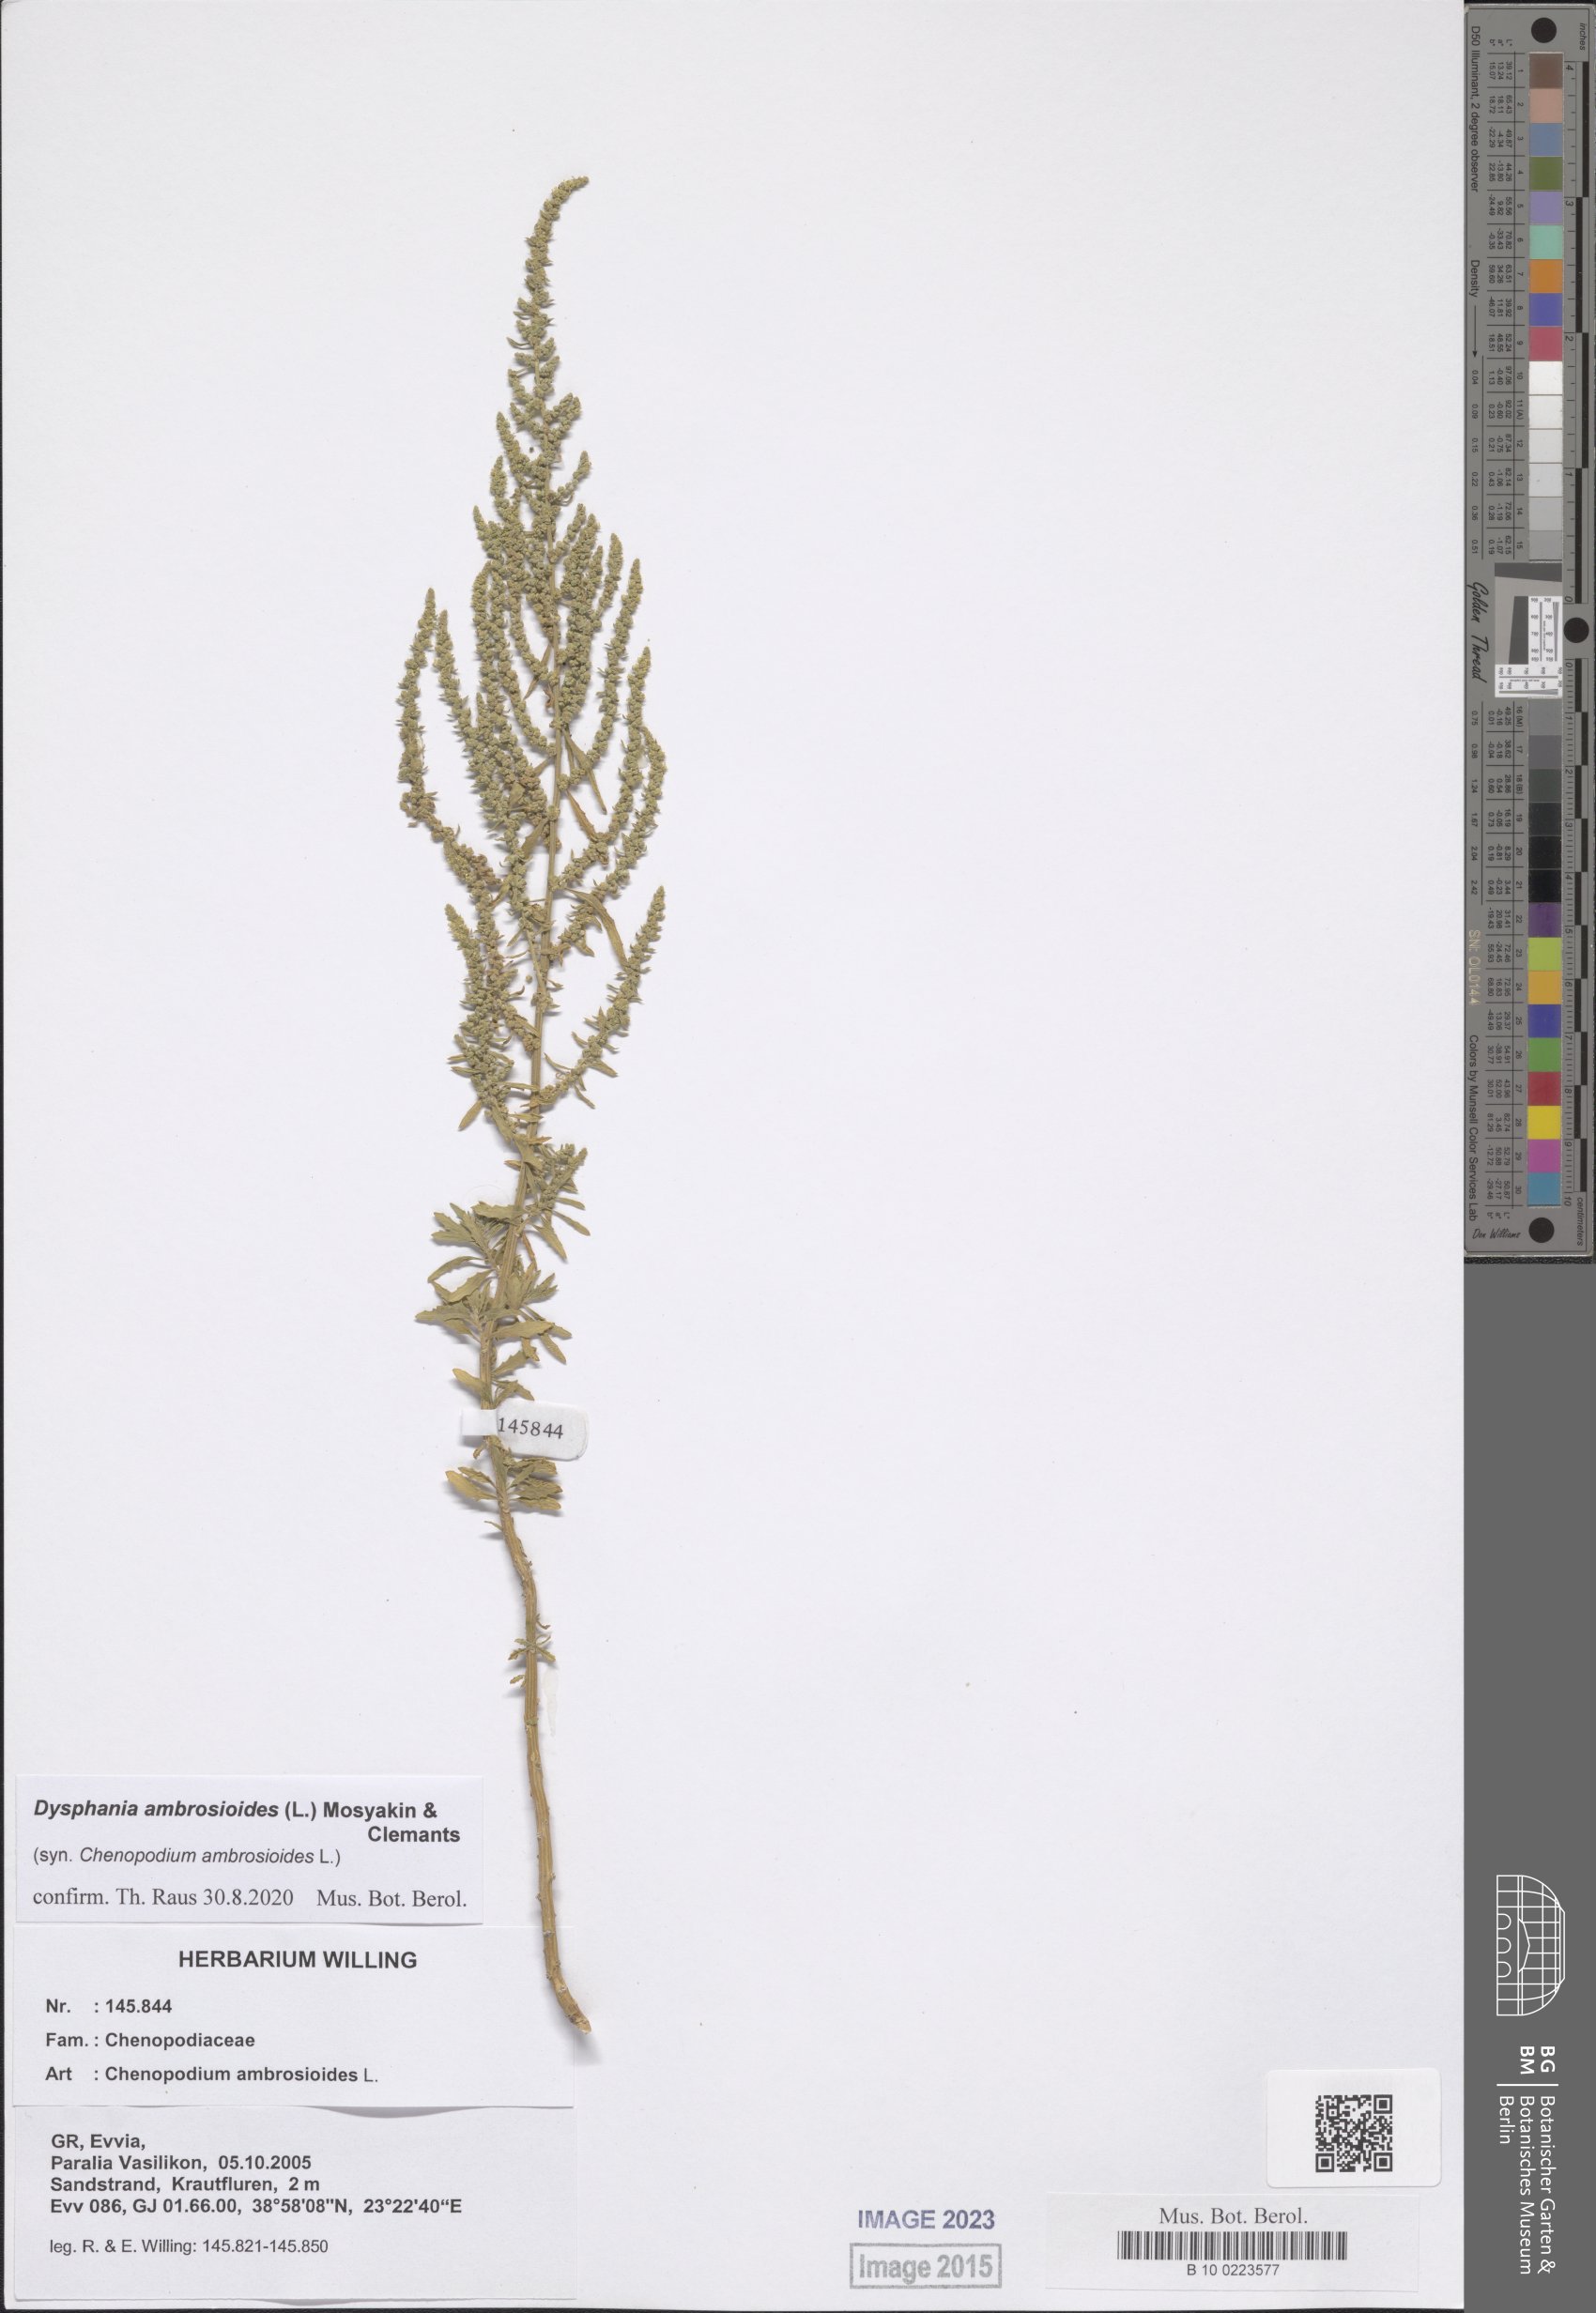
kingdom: Plantae
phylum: Tracheophyta
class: Magnoliopsida
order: Caryophyllales
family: Amaranthaceae
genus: Dysphania
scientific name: Dysphania ambrosioides
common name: Wormseed
